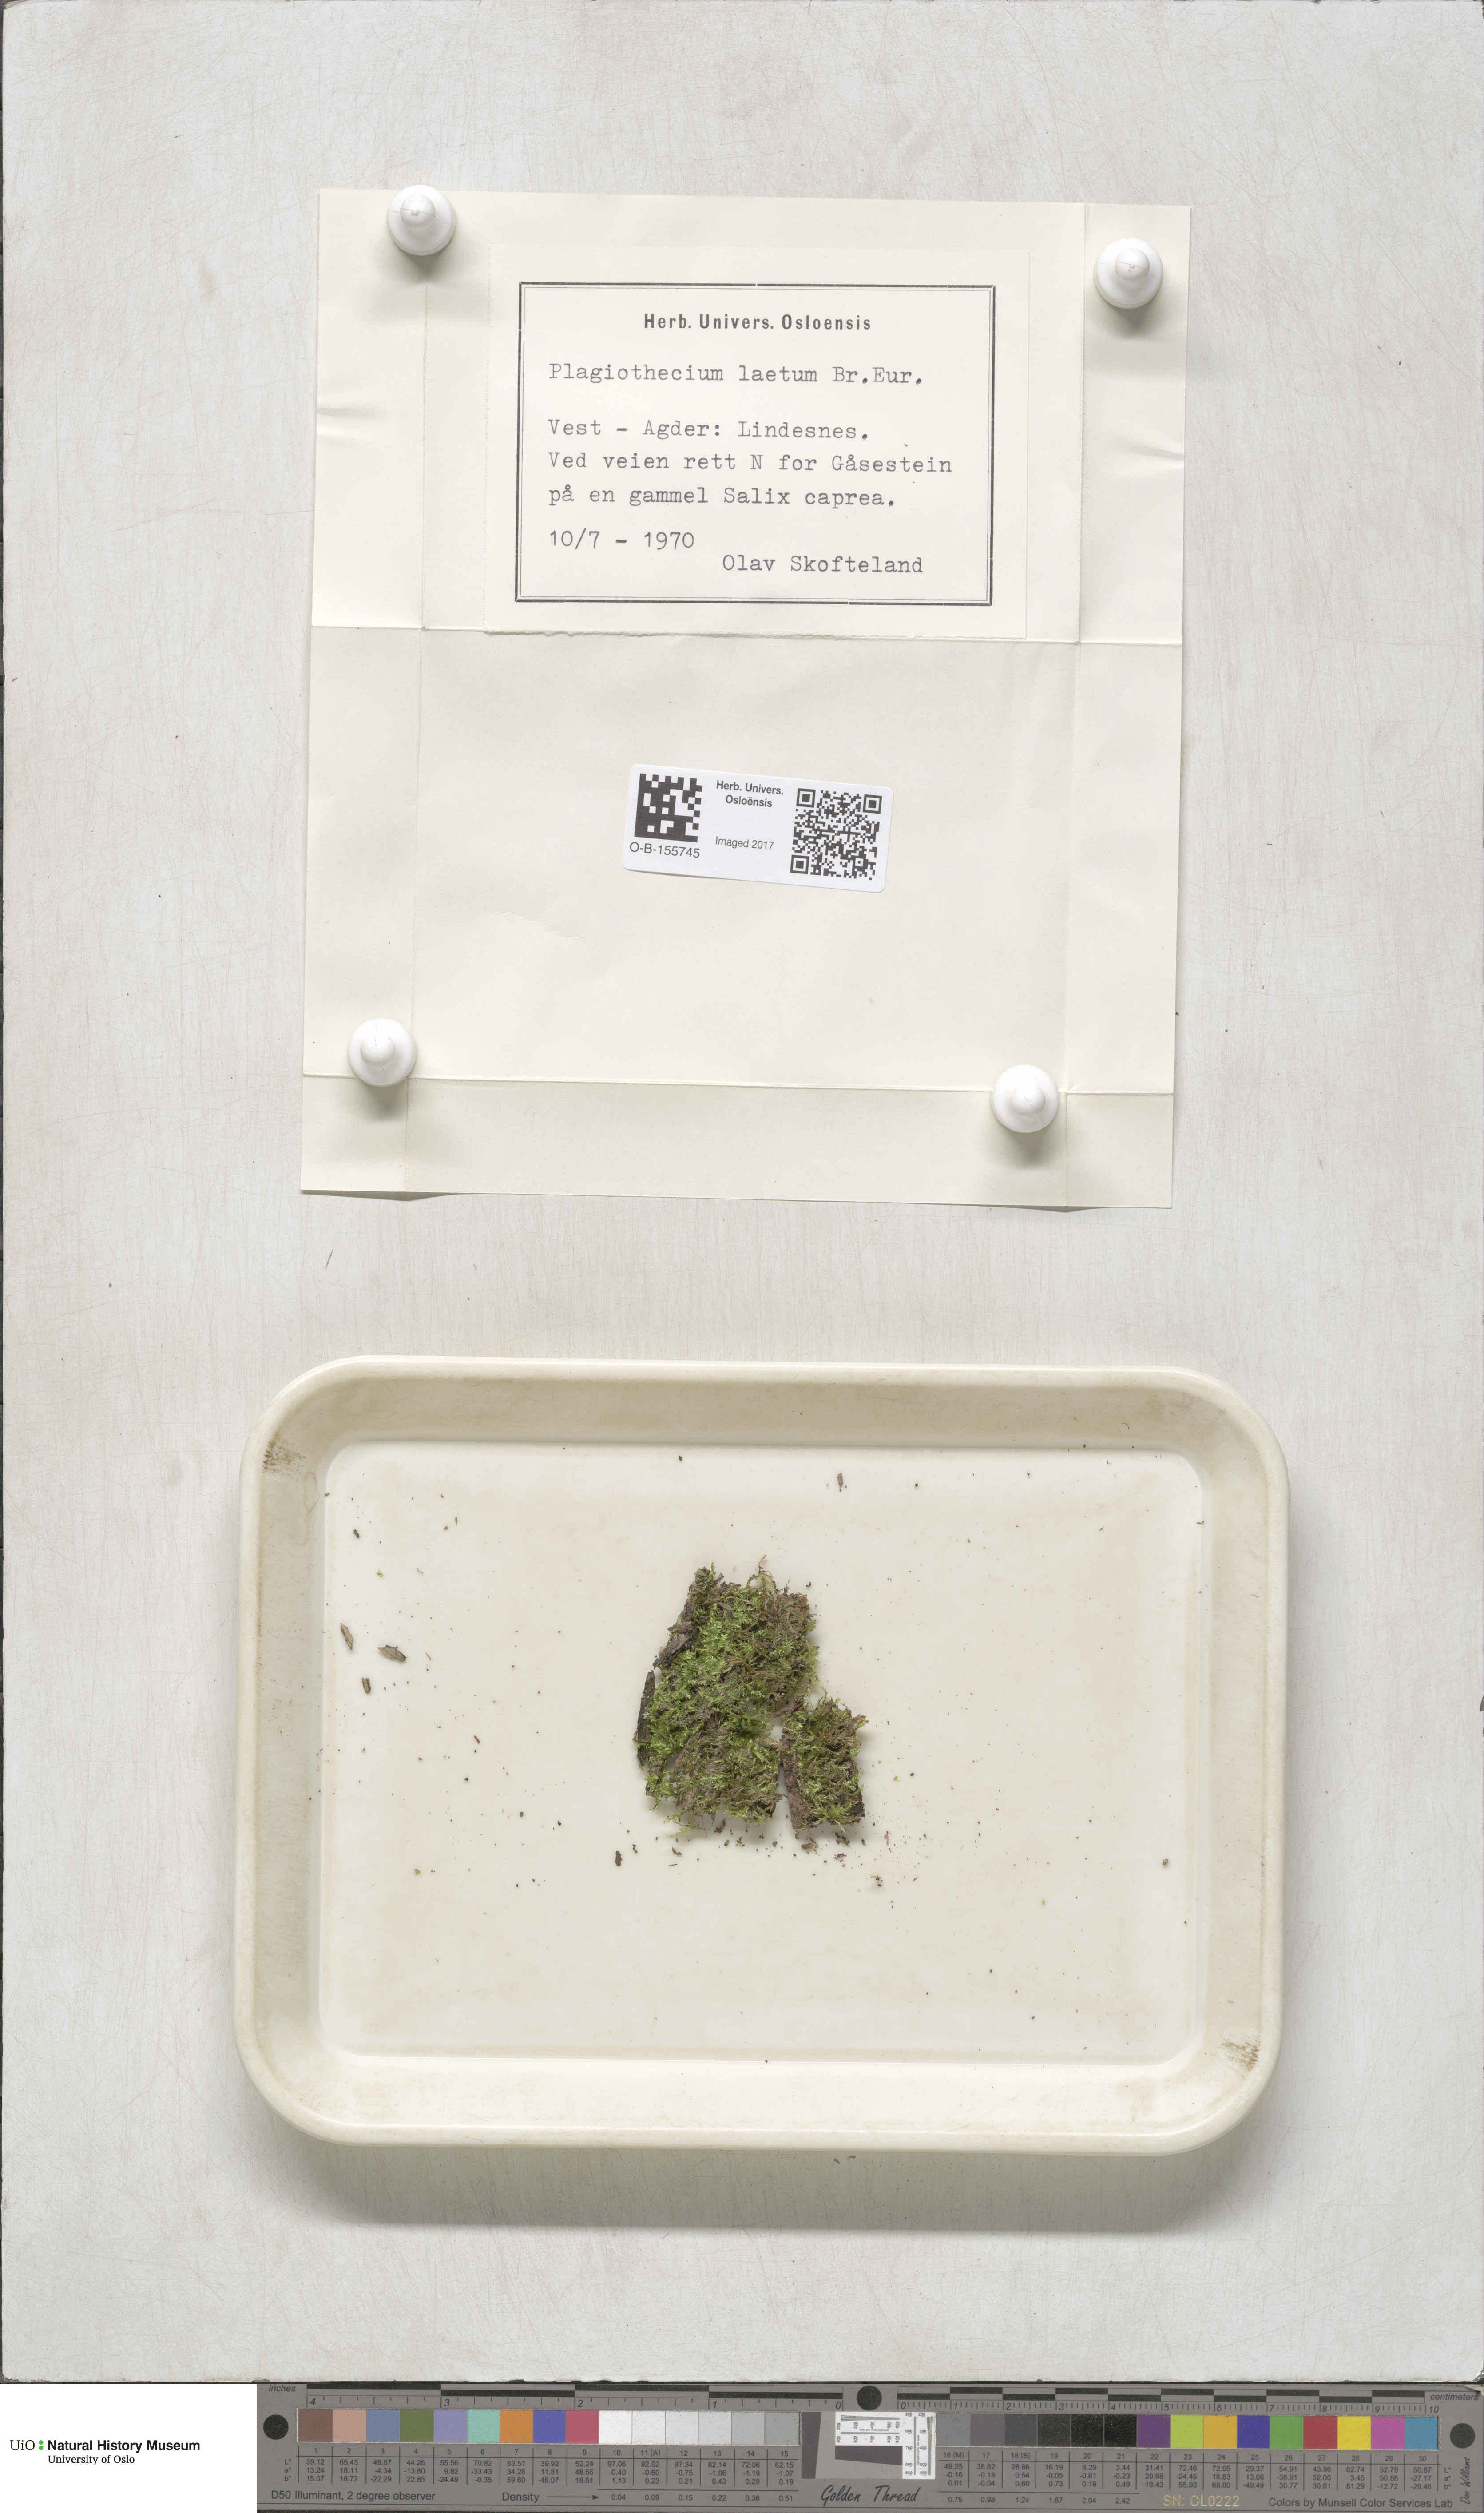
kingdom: Plantae
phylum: Bryophyta
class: Bryopsida
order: Hypnales
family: Plagiotheciaceae
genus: Plagiothecium
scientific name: Plagiothecium laetum
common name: Bright silk moss
